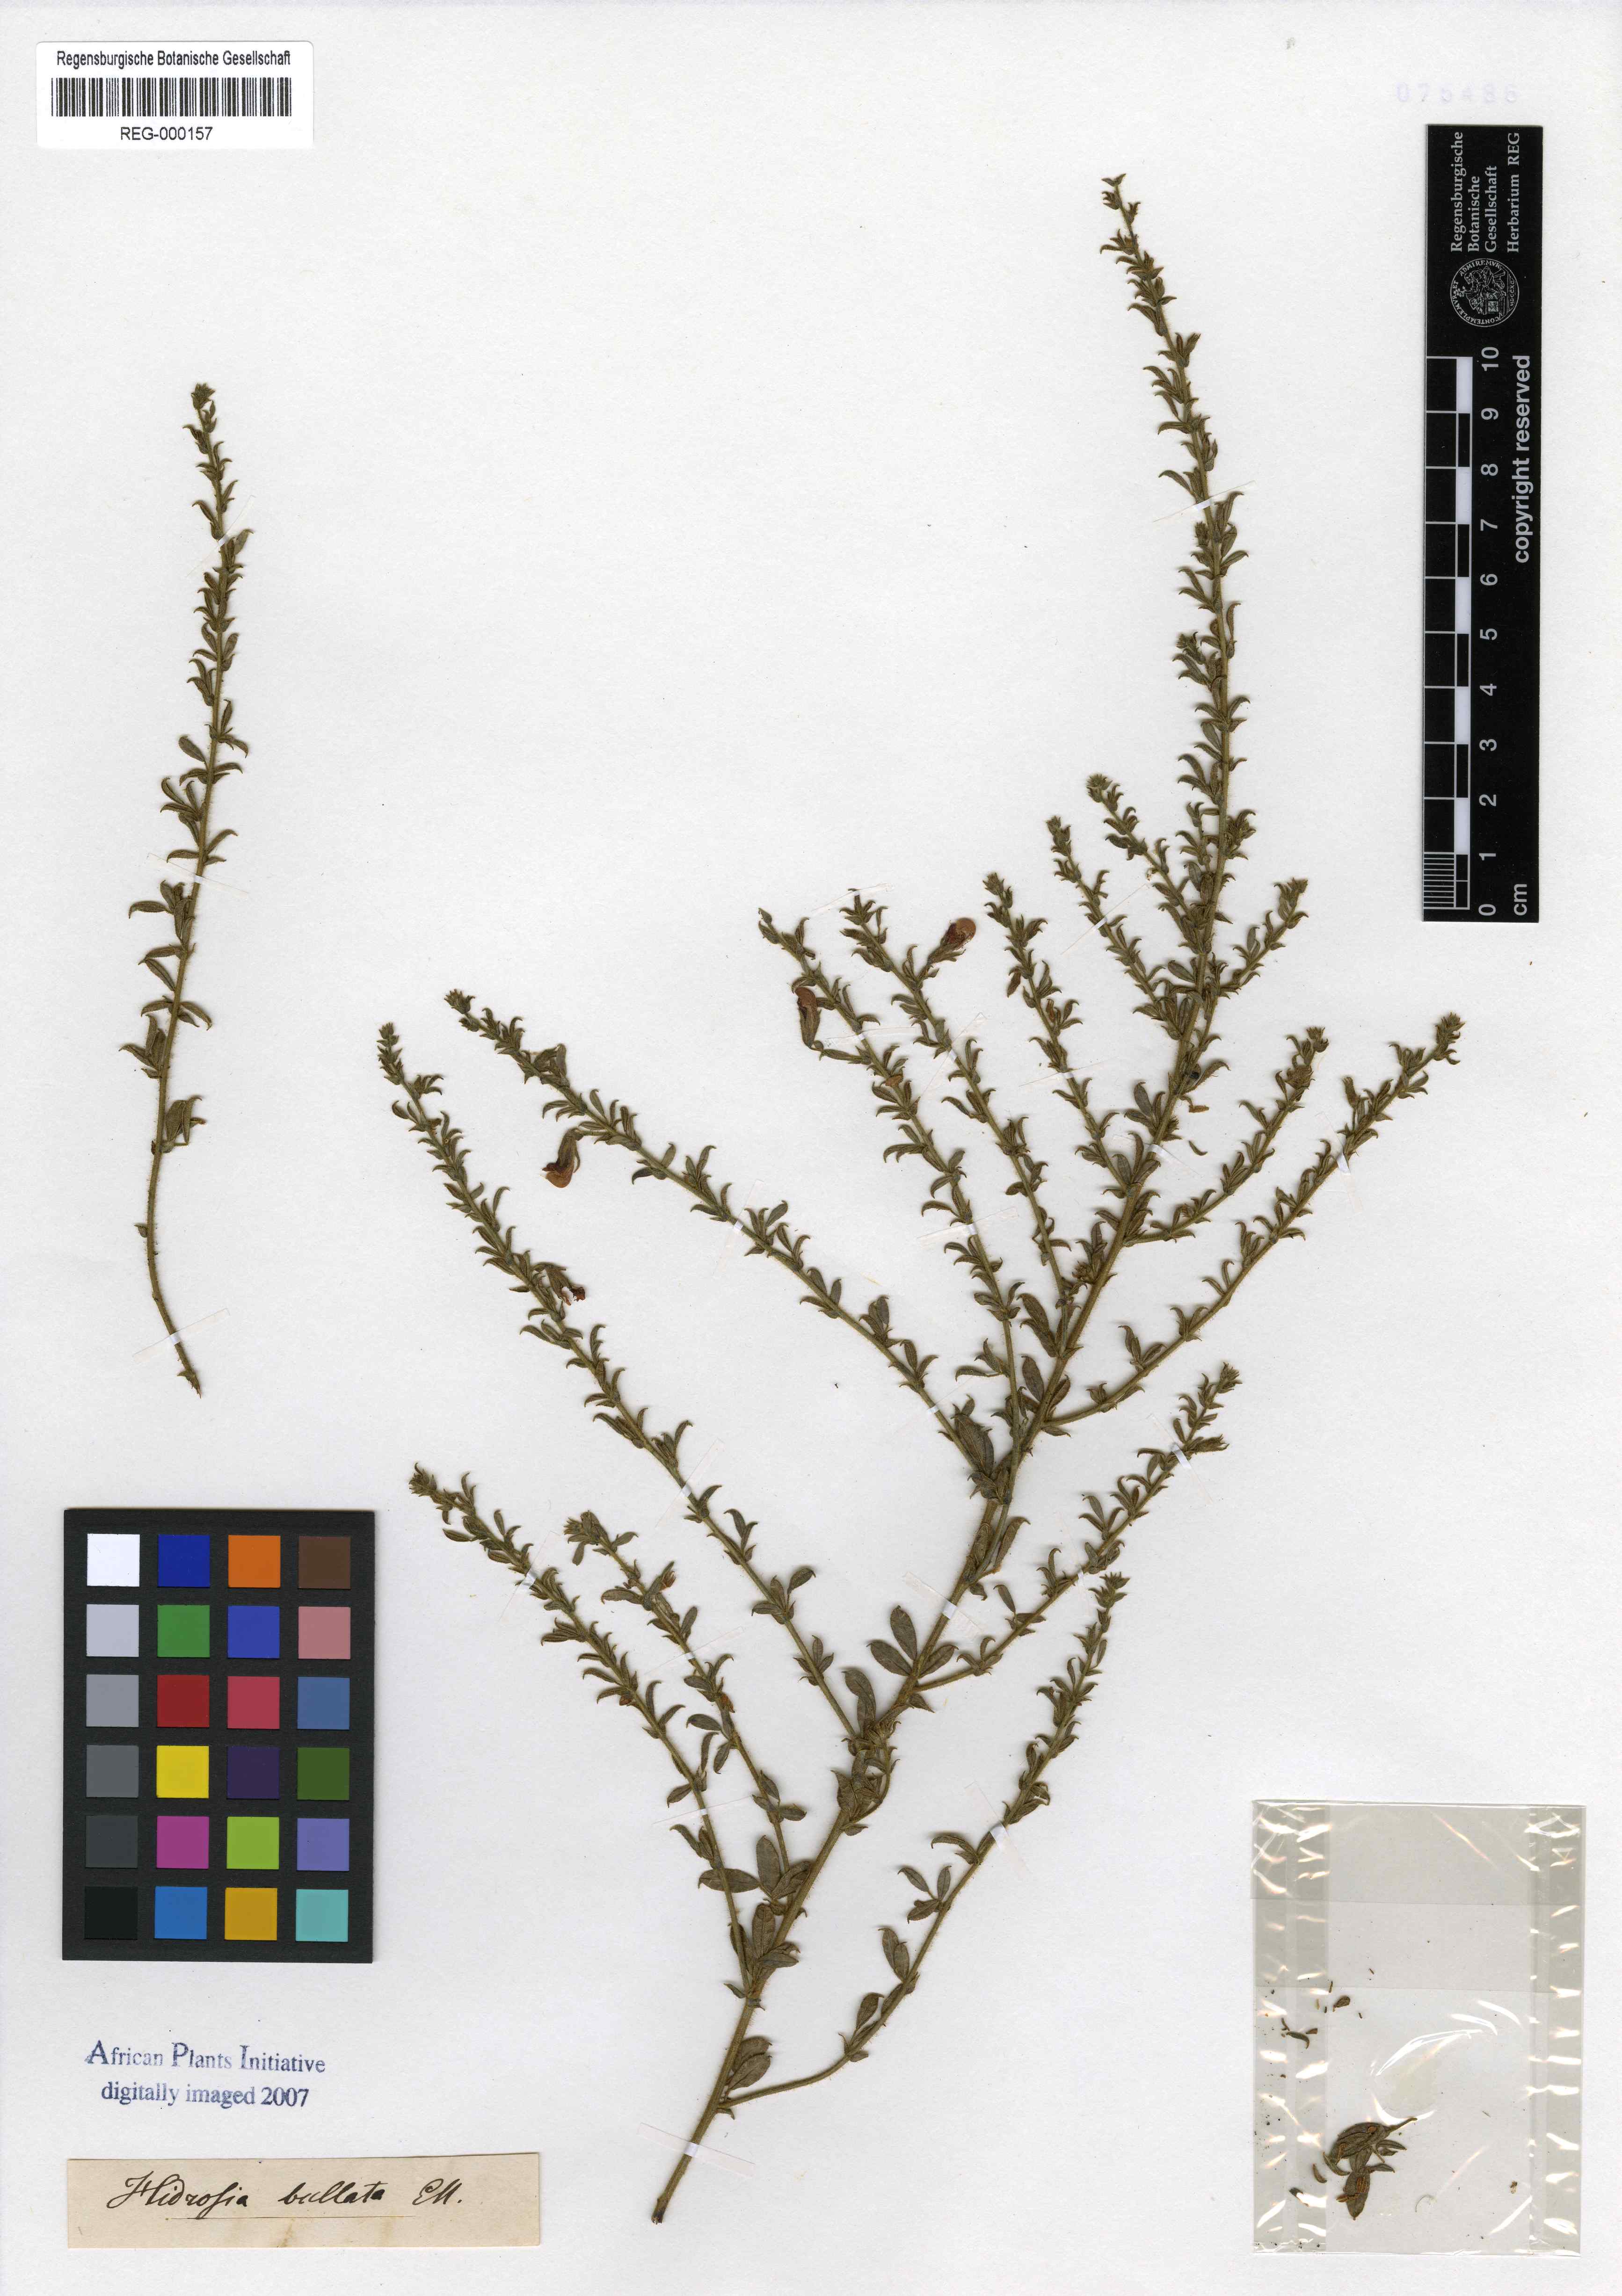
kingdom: Plantae
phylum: Tracheophyta
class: Magnoliopsida
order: Fabales
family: Fabaceae
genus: Rhynchosia
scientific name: Rhynchosia bullata
